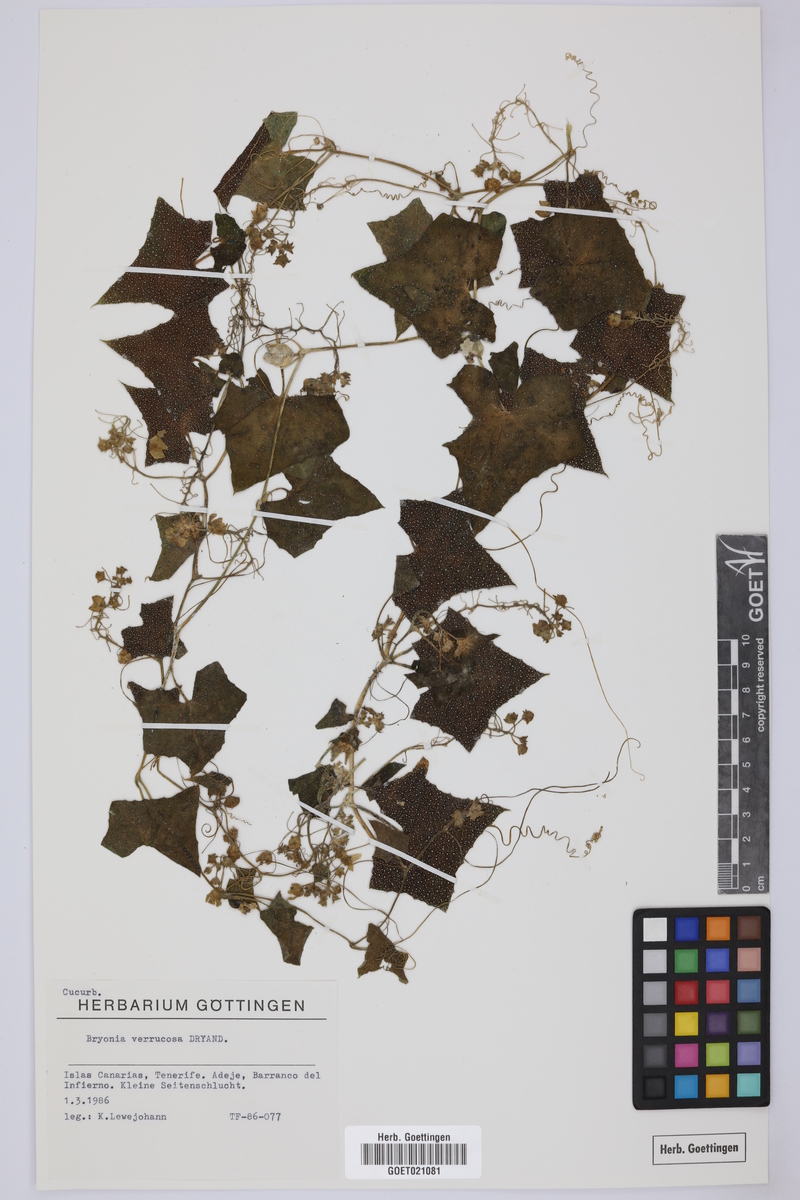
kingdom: Plantae
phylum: Tracheophyta
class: Magnoliopsida
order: Cucurbitales
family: Cucurbitaceae
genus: Bryonia
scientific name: Bryonia verrucosa
